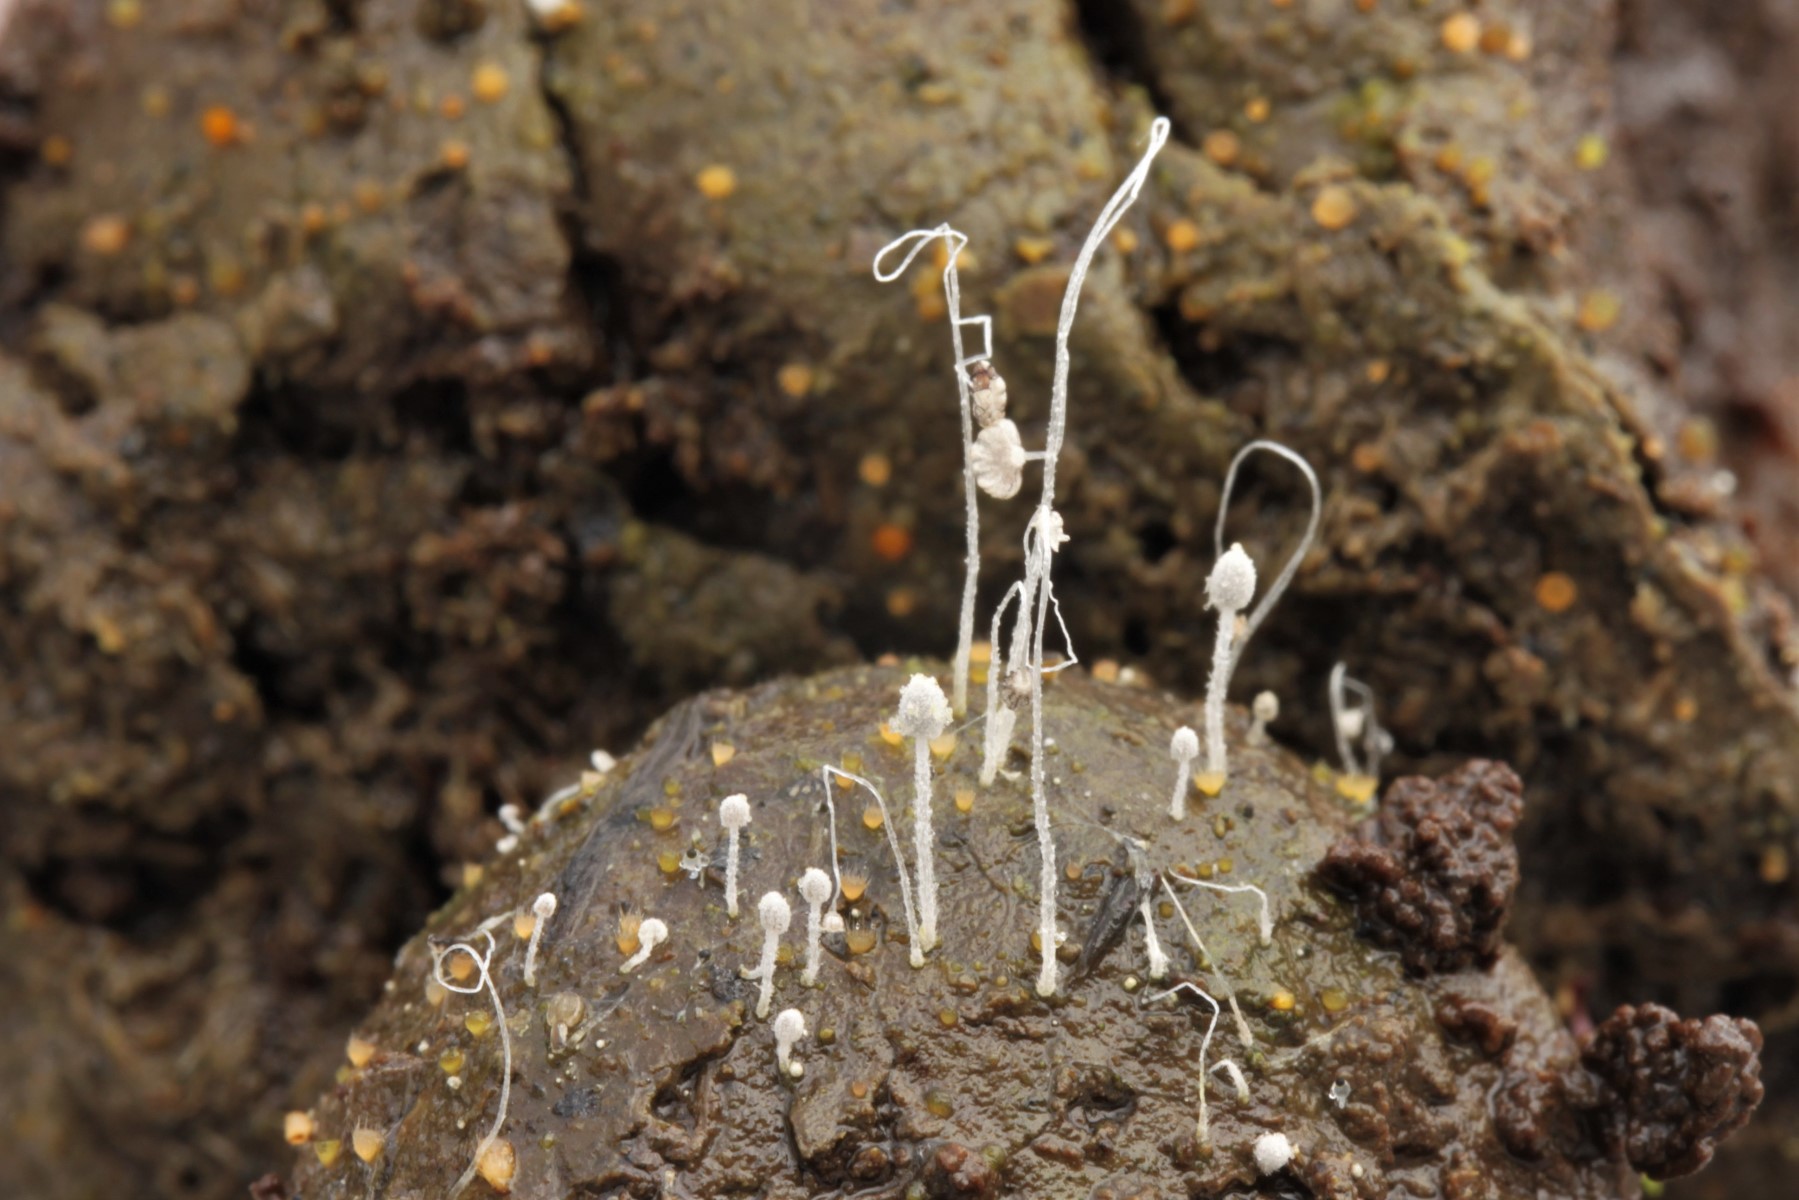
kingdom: Fungi
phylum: Basidiomycota
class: Agaricomycetes
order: Agaricales
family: Psathyrellaceae
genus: Coprinopsis
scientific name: Coprinopsis
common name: blækhat
